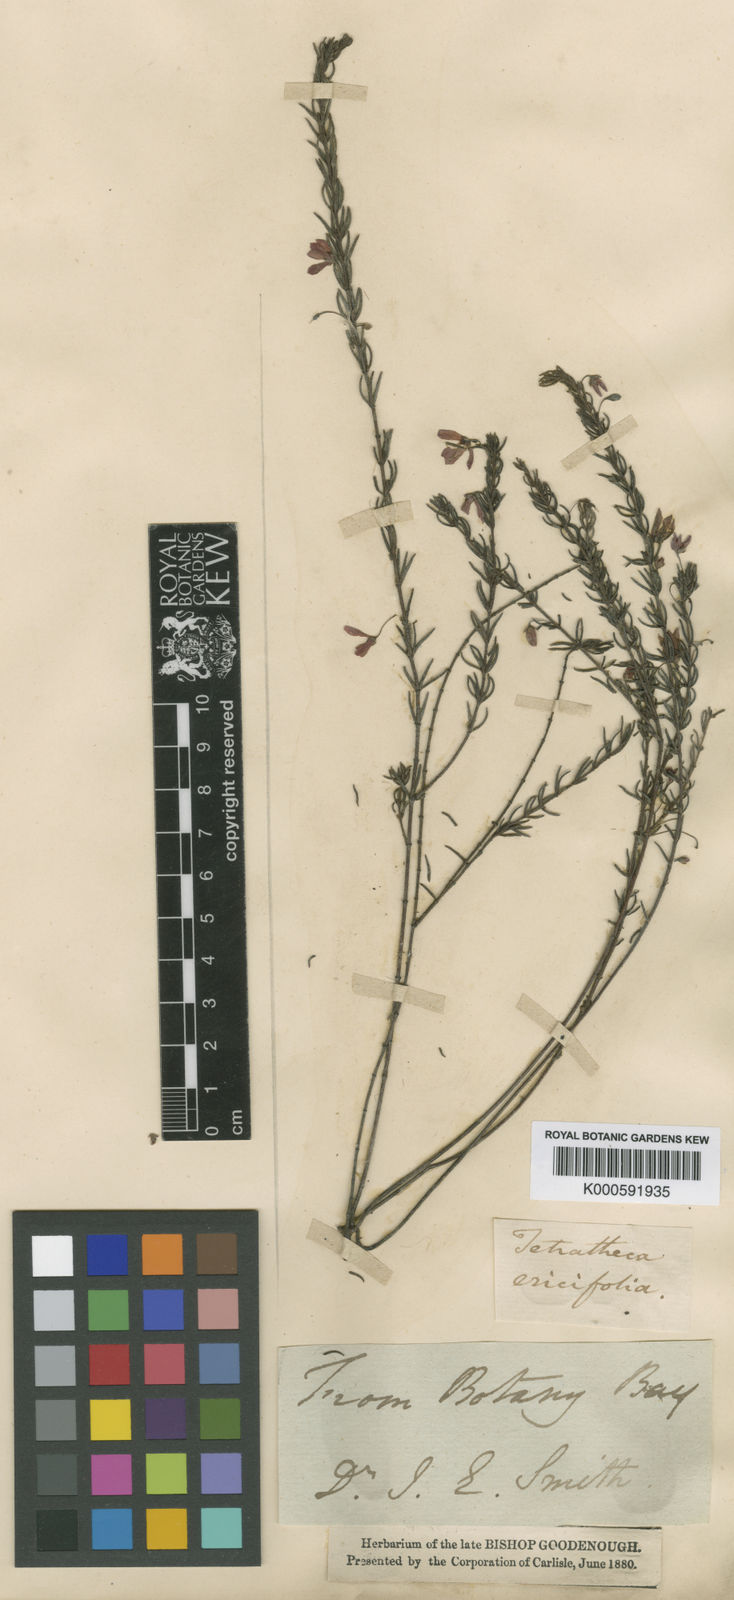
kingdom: Plantae
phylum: Tracheophyta
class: Magnoliopsida
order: Oxalidales
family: Elaeocarpaceae
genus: Tetratheca
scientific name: Tetratheca ericifolia
